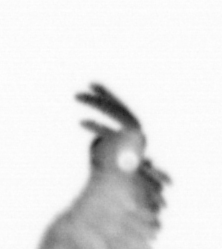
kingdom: Animalia
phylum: Annelida
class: Polychaeta
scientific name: Polychaeta
